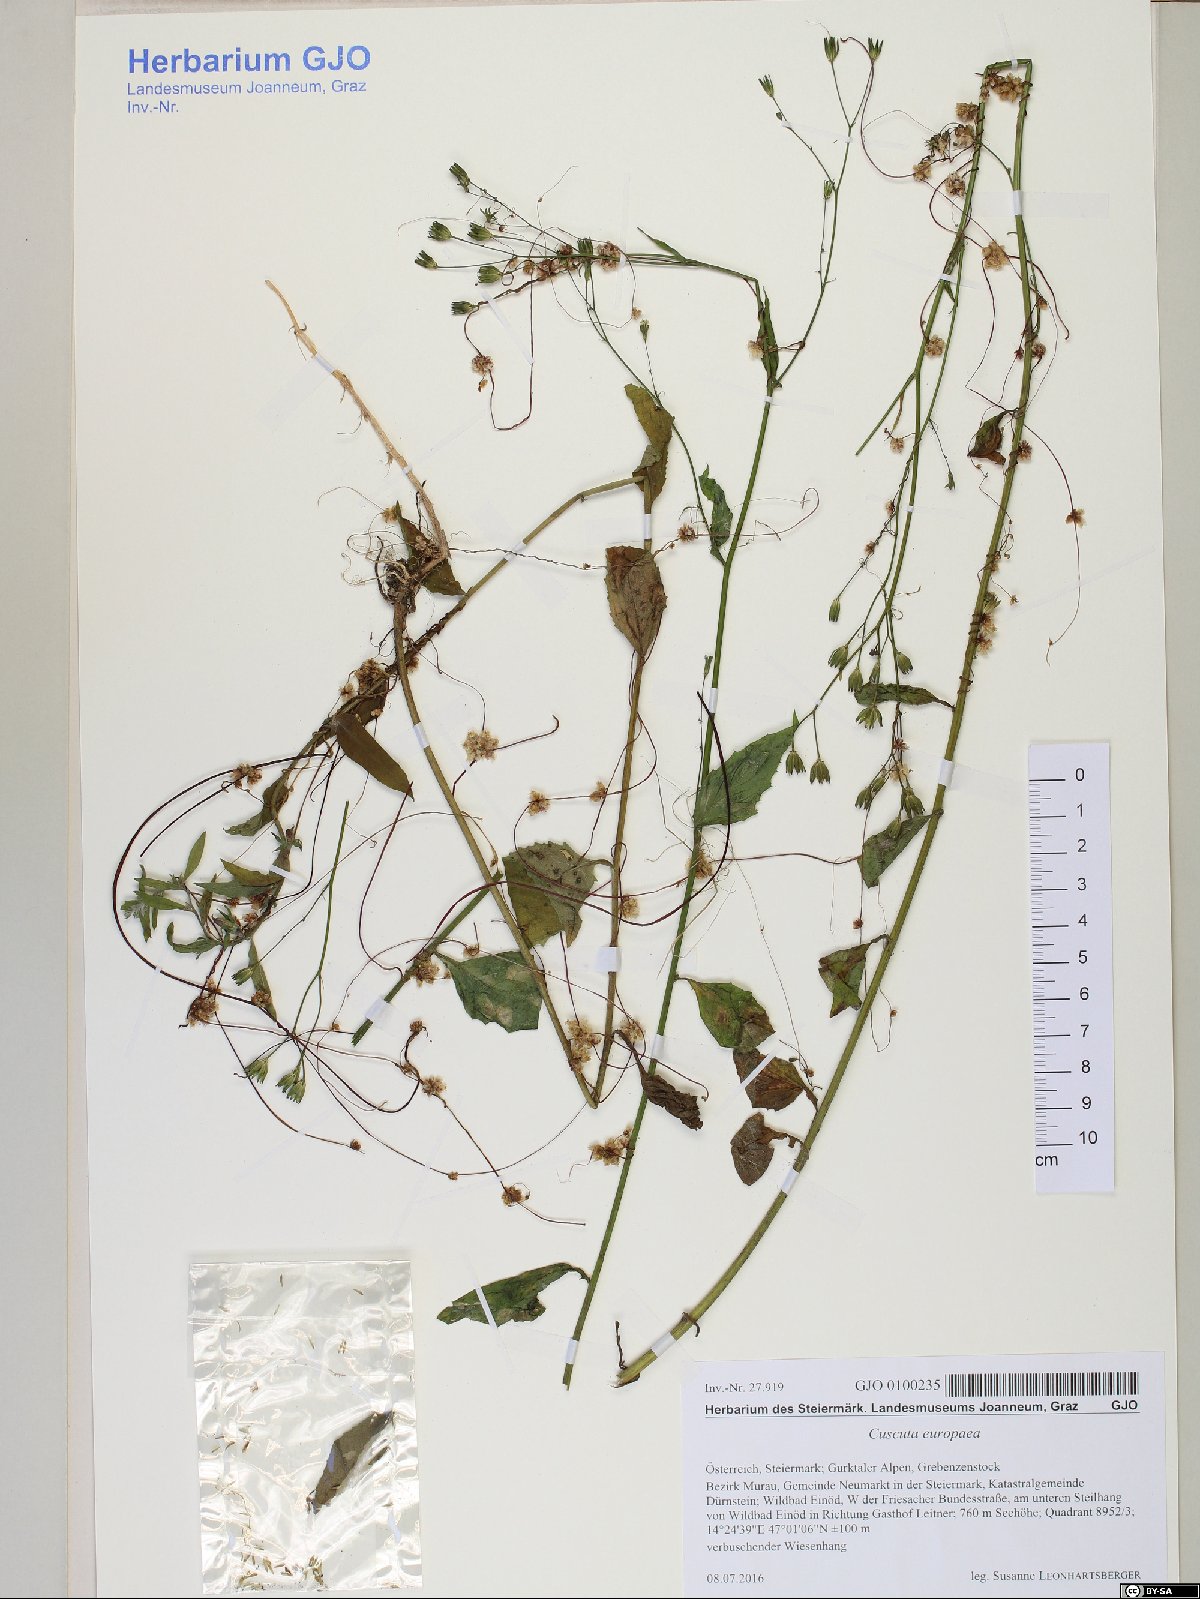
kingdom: Plantae
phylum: Tracheophyta
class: Magnoliopsida
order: Solanales
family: Convolvulaceae
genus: Cuscuta
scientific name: Cuscuta europaea
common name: Greater dodder
